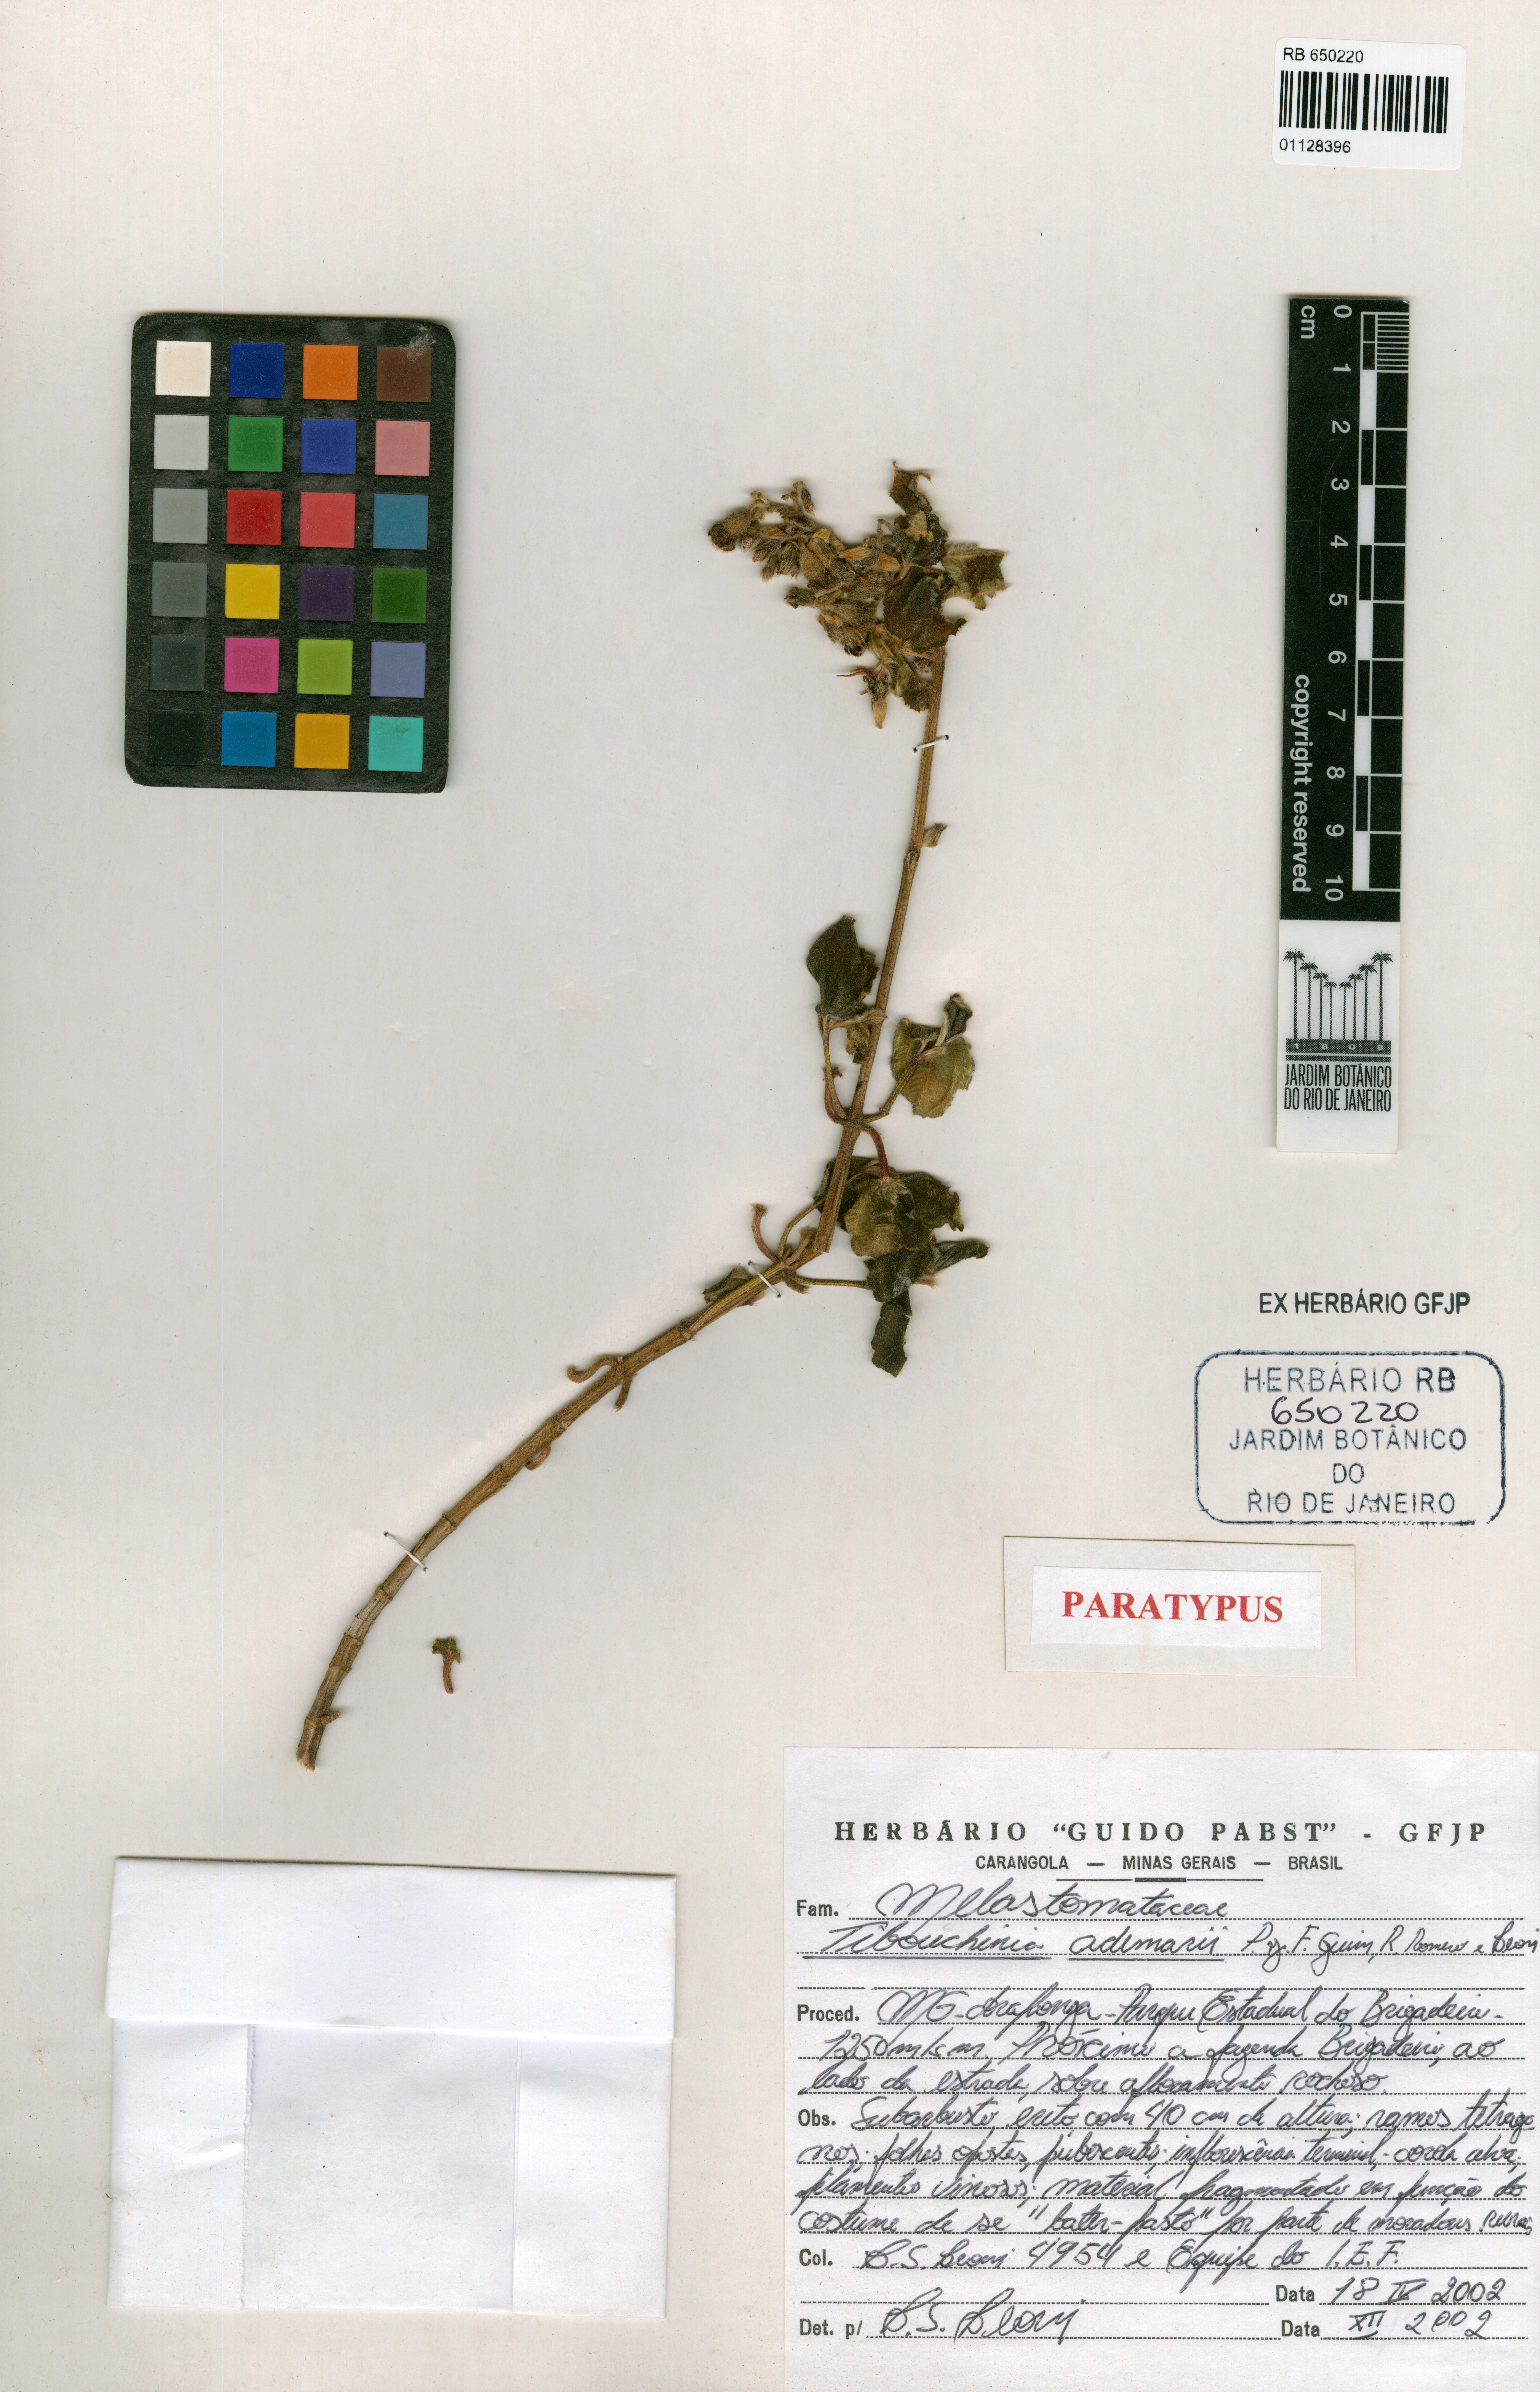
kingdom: Plantae
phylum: Tracheophyta
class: Magnoliopsida
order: Myrtales
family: Melastomataceae
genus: Pleroma
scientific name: Pleroma ademarii
